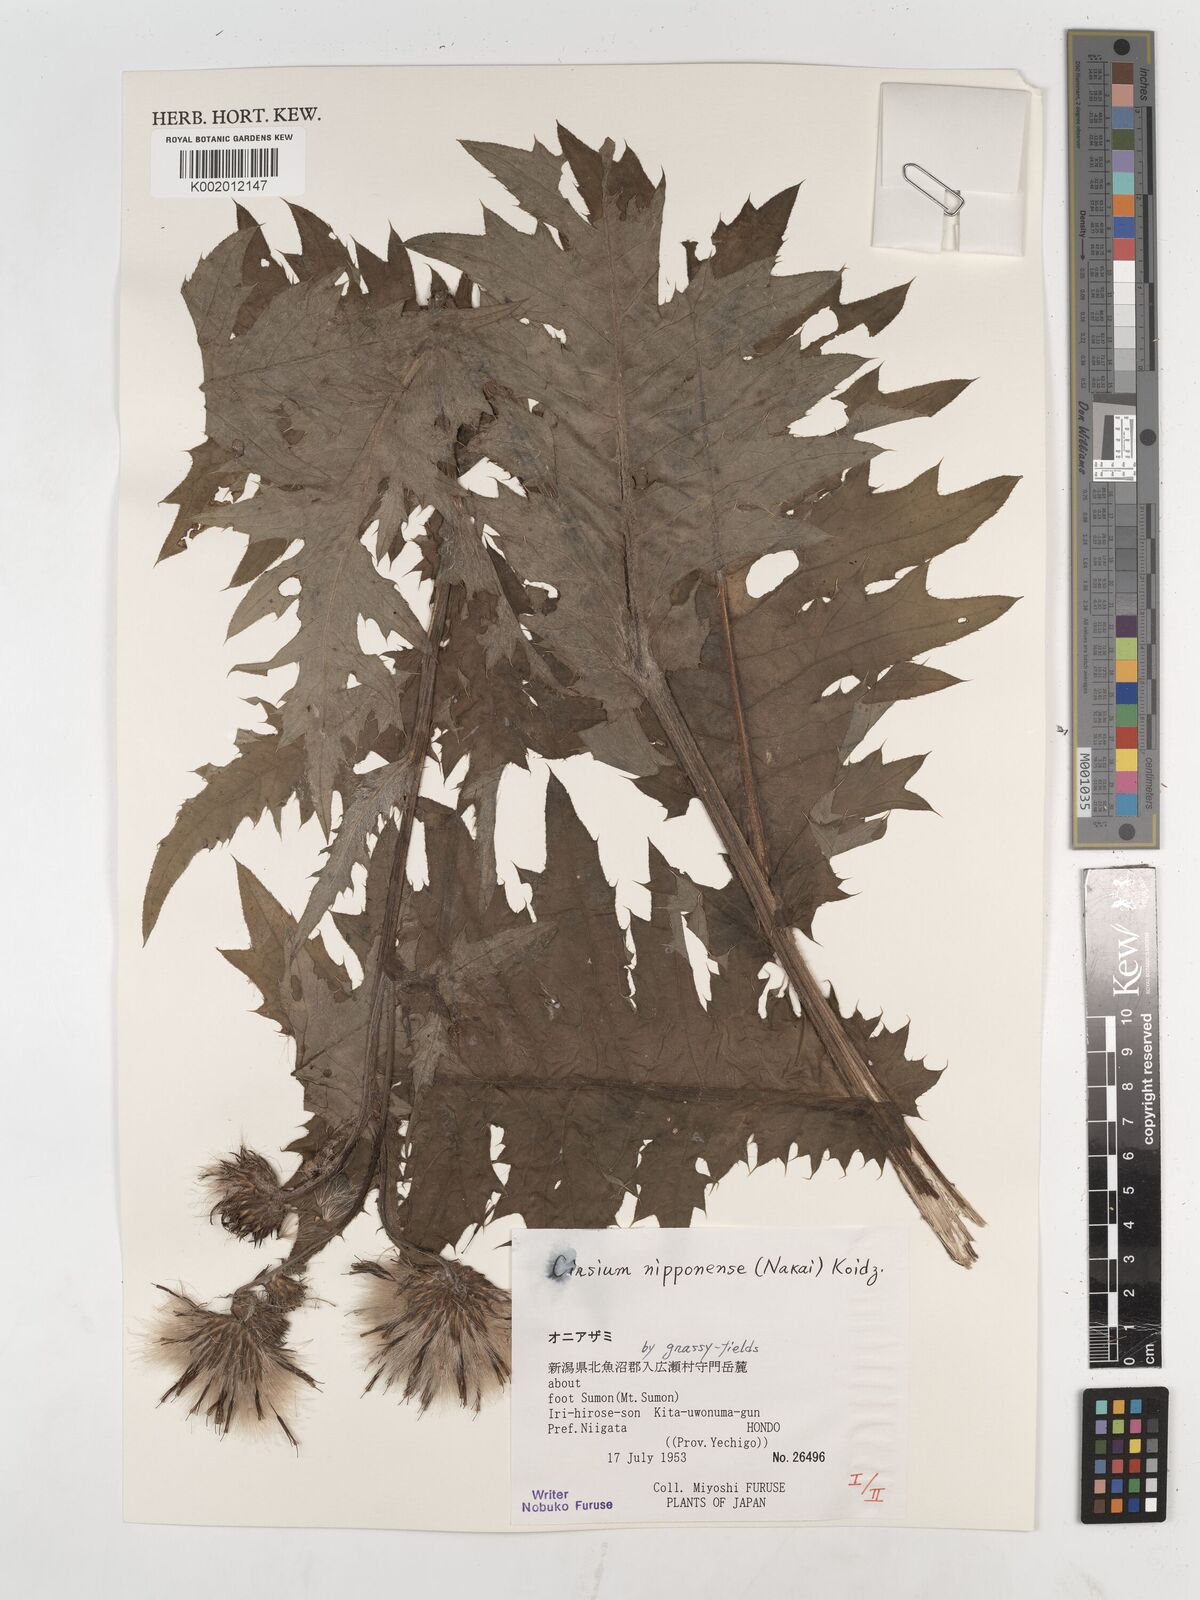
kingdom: Plantae
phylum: Tracheophyta
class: Magnoliopsida
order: Asterales
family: Asteraceae
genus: Cirsium
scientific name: Cirsium borealinipponense
